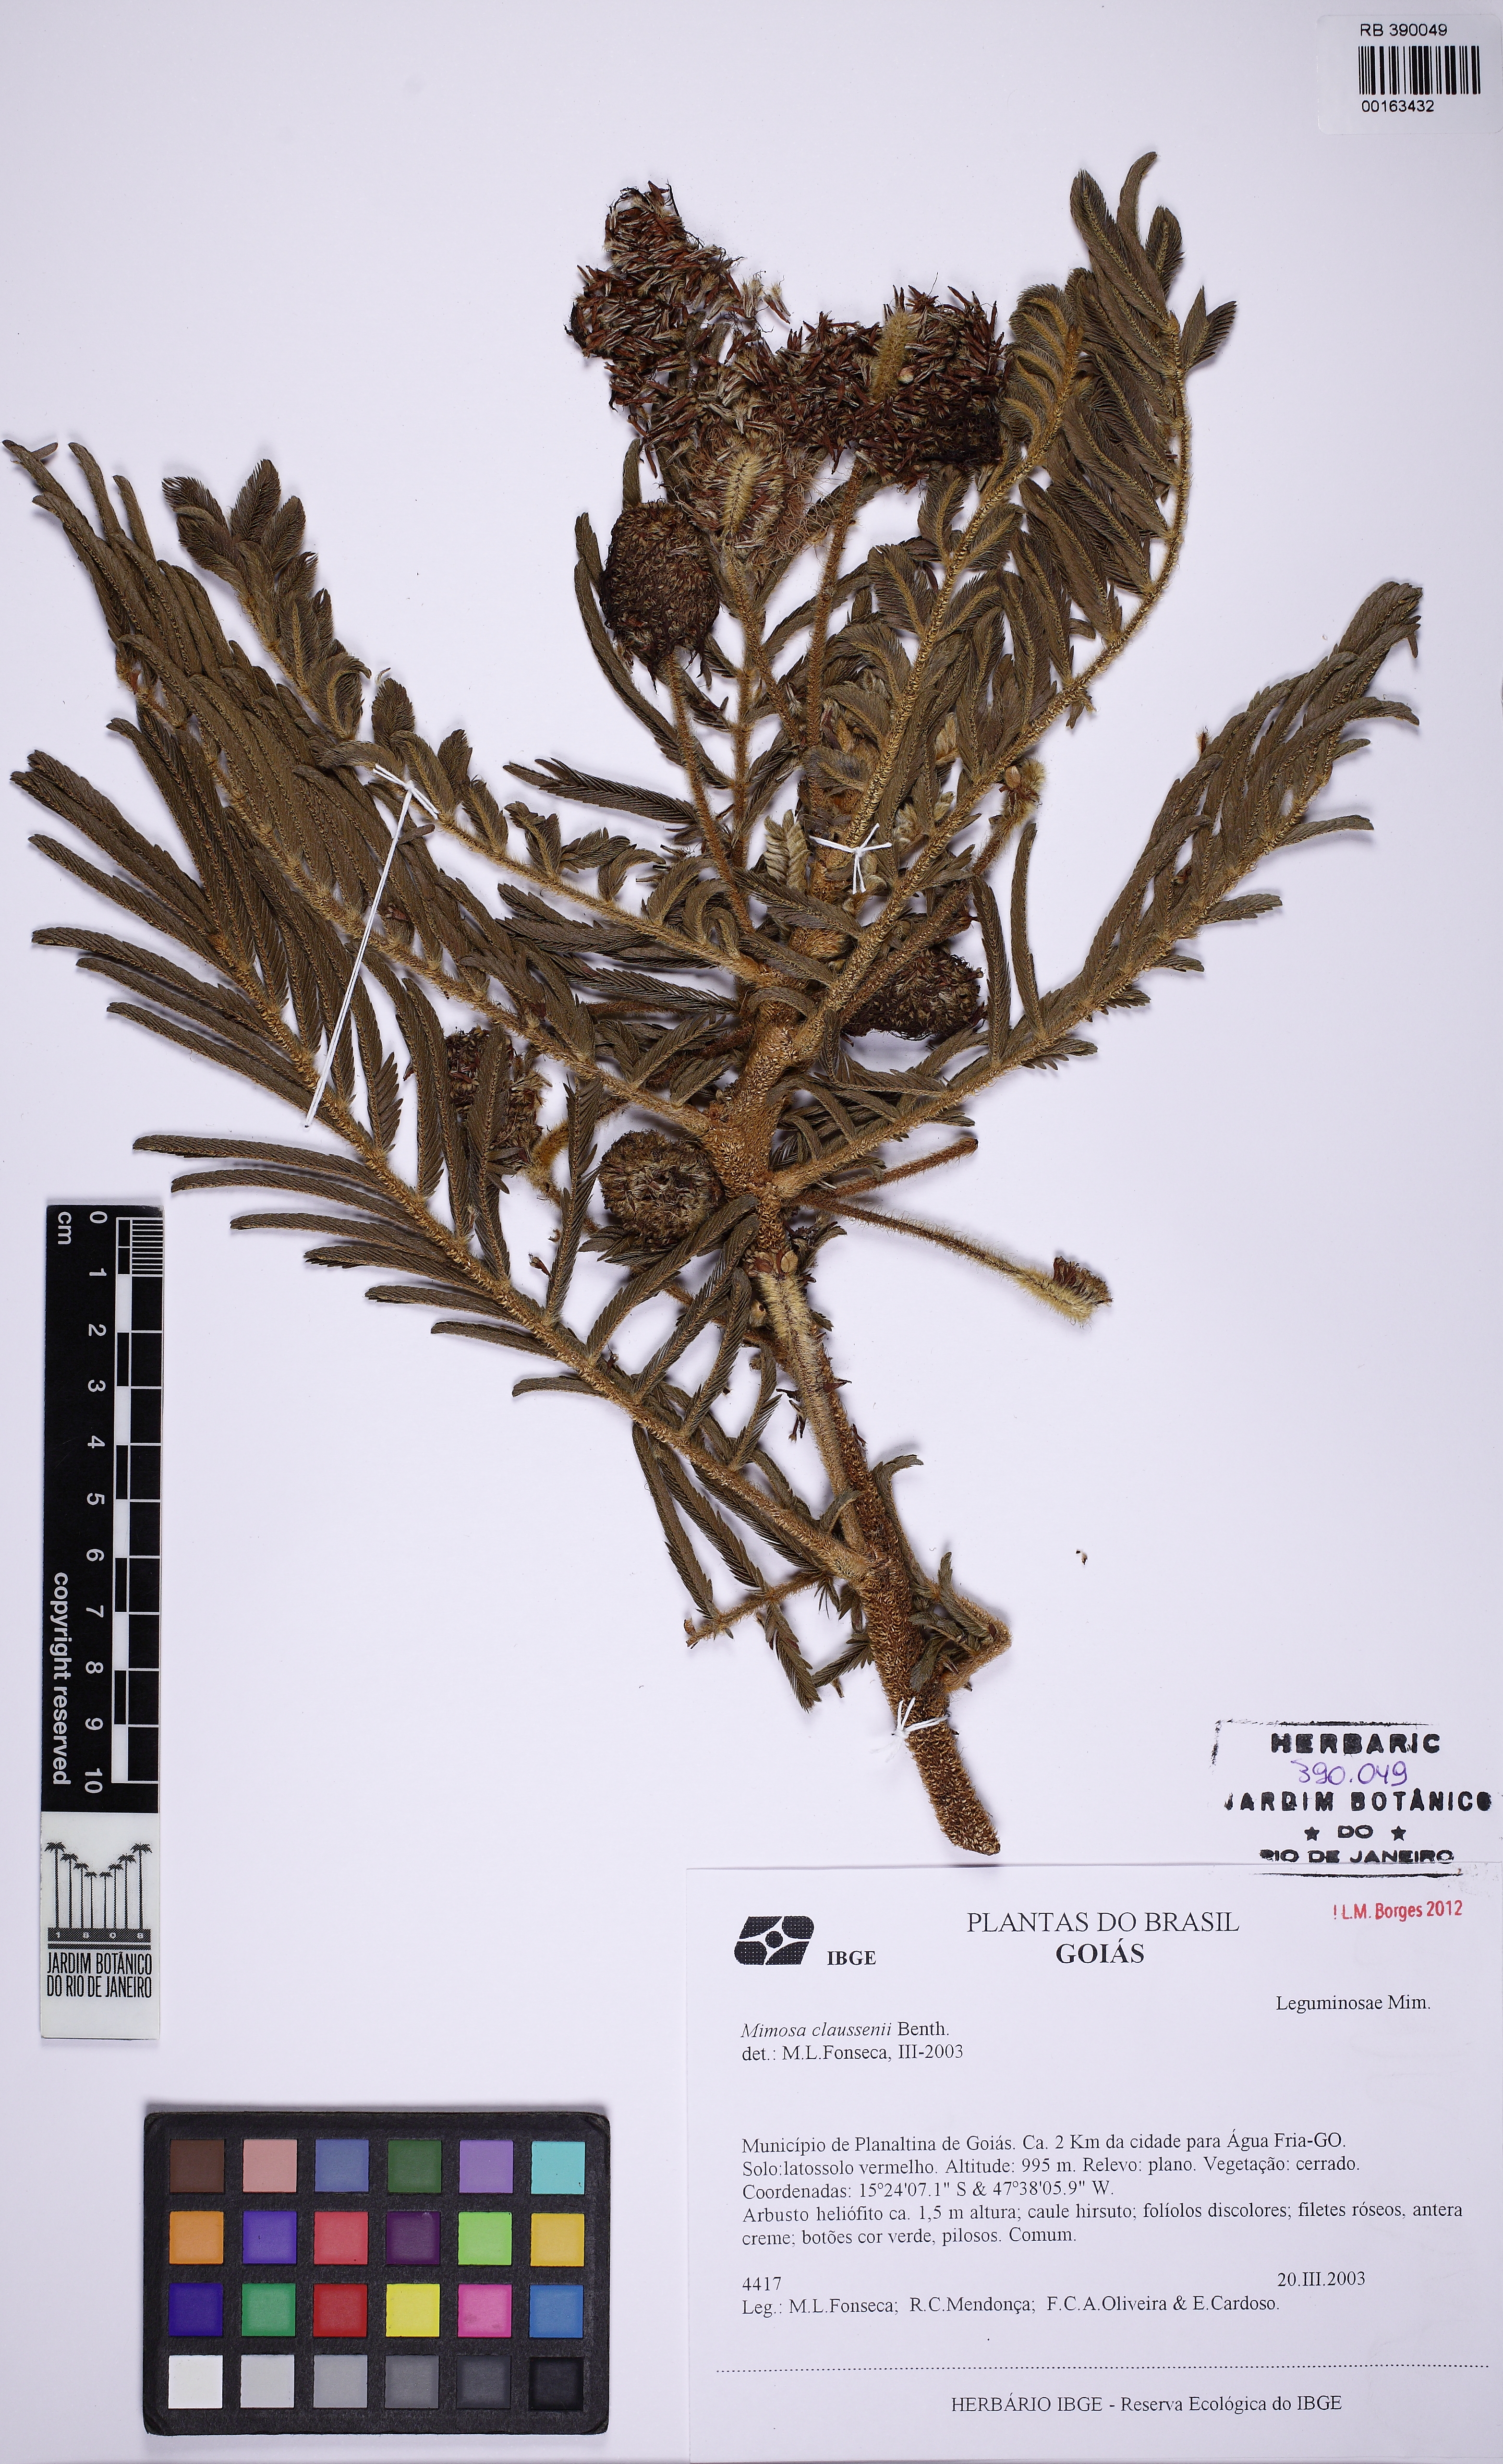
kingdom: Plantae
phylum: Tracheophyta
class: Magnoliopsida
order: Fabales
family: Fabaceae
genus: Mimosa
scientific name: Mimosa claussenii
